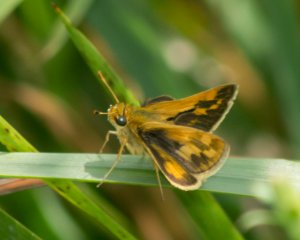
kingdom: Animalia
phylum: Arthropoda
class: Insecta
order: Lepidoptera
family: Hesperiidae
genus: Polites
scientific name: Polites coras
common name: Peck's Skipper
